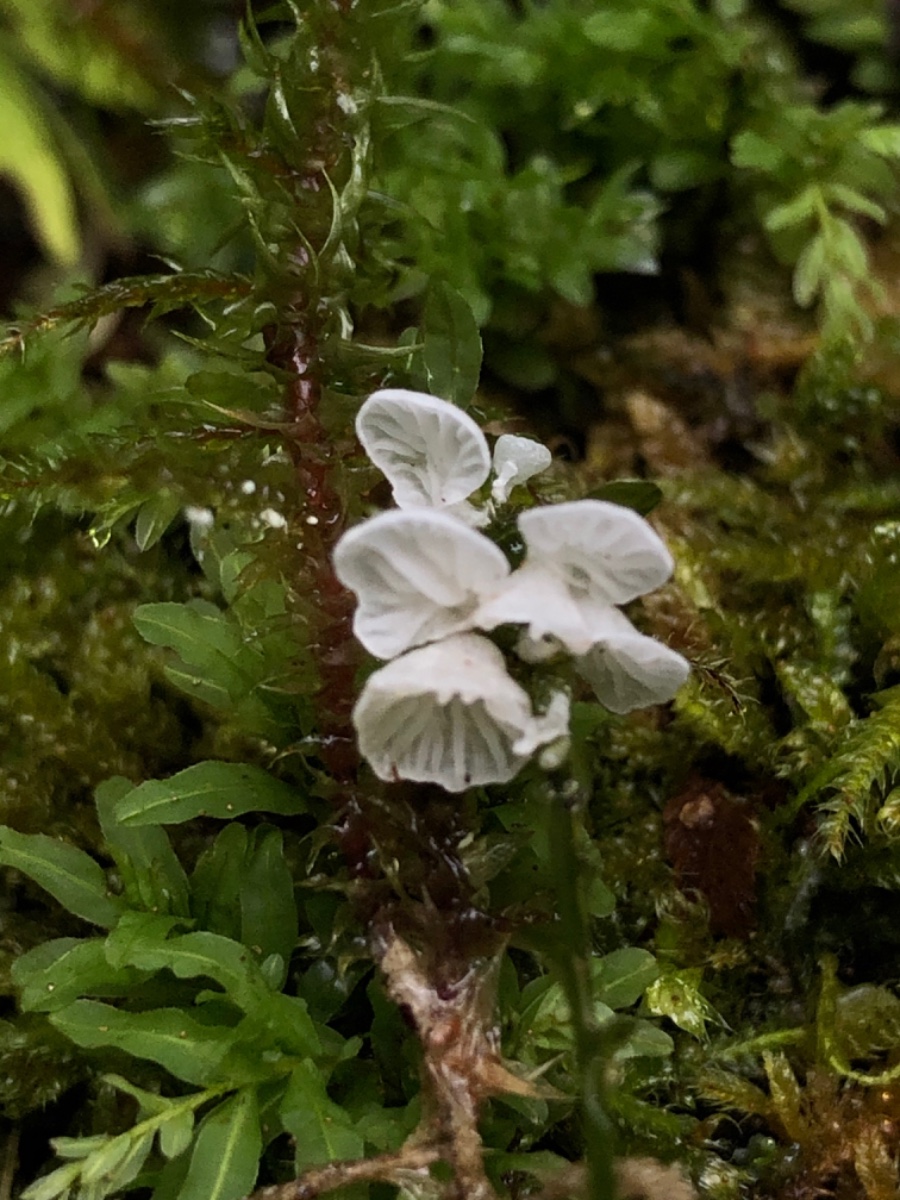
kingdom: Fungi
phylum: Basidiomycota
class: Agaricomycetes
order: Agaricales
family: Tricholomataceae
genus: Rimbachia
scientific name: Rimbachia bryophila
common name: året mosskål
